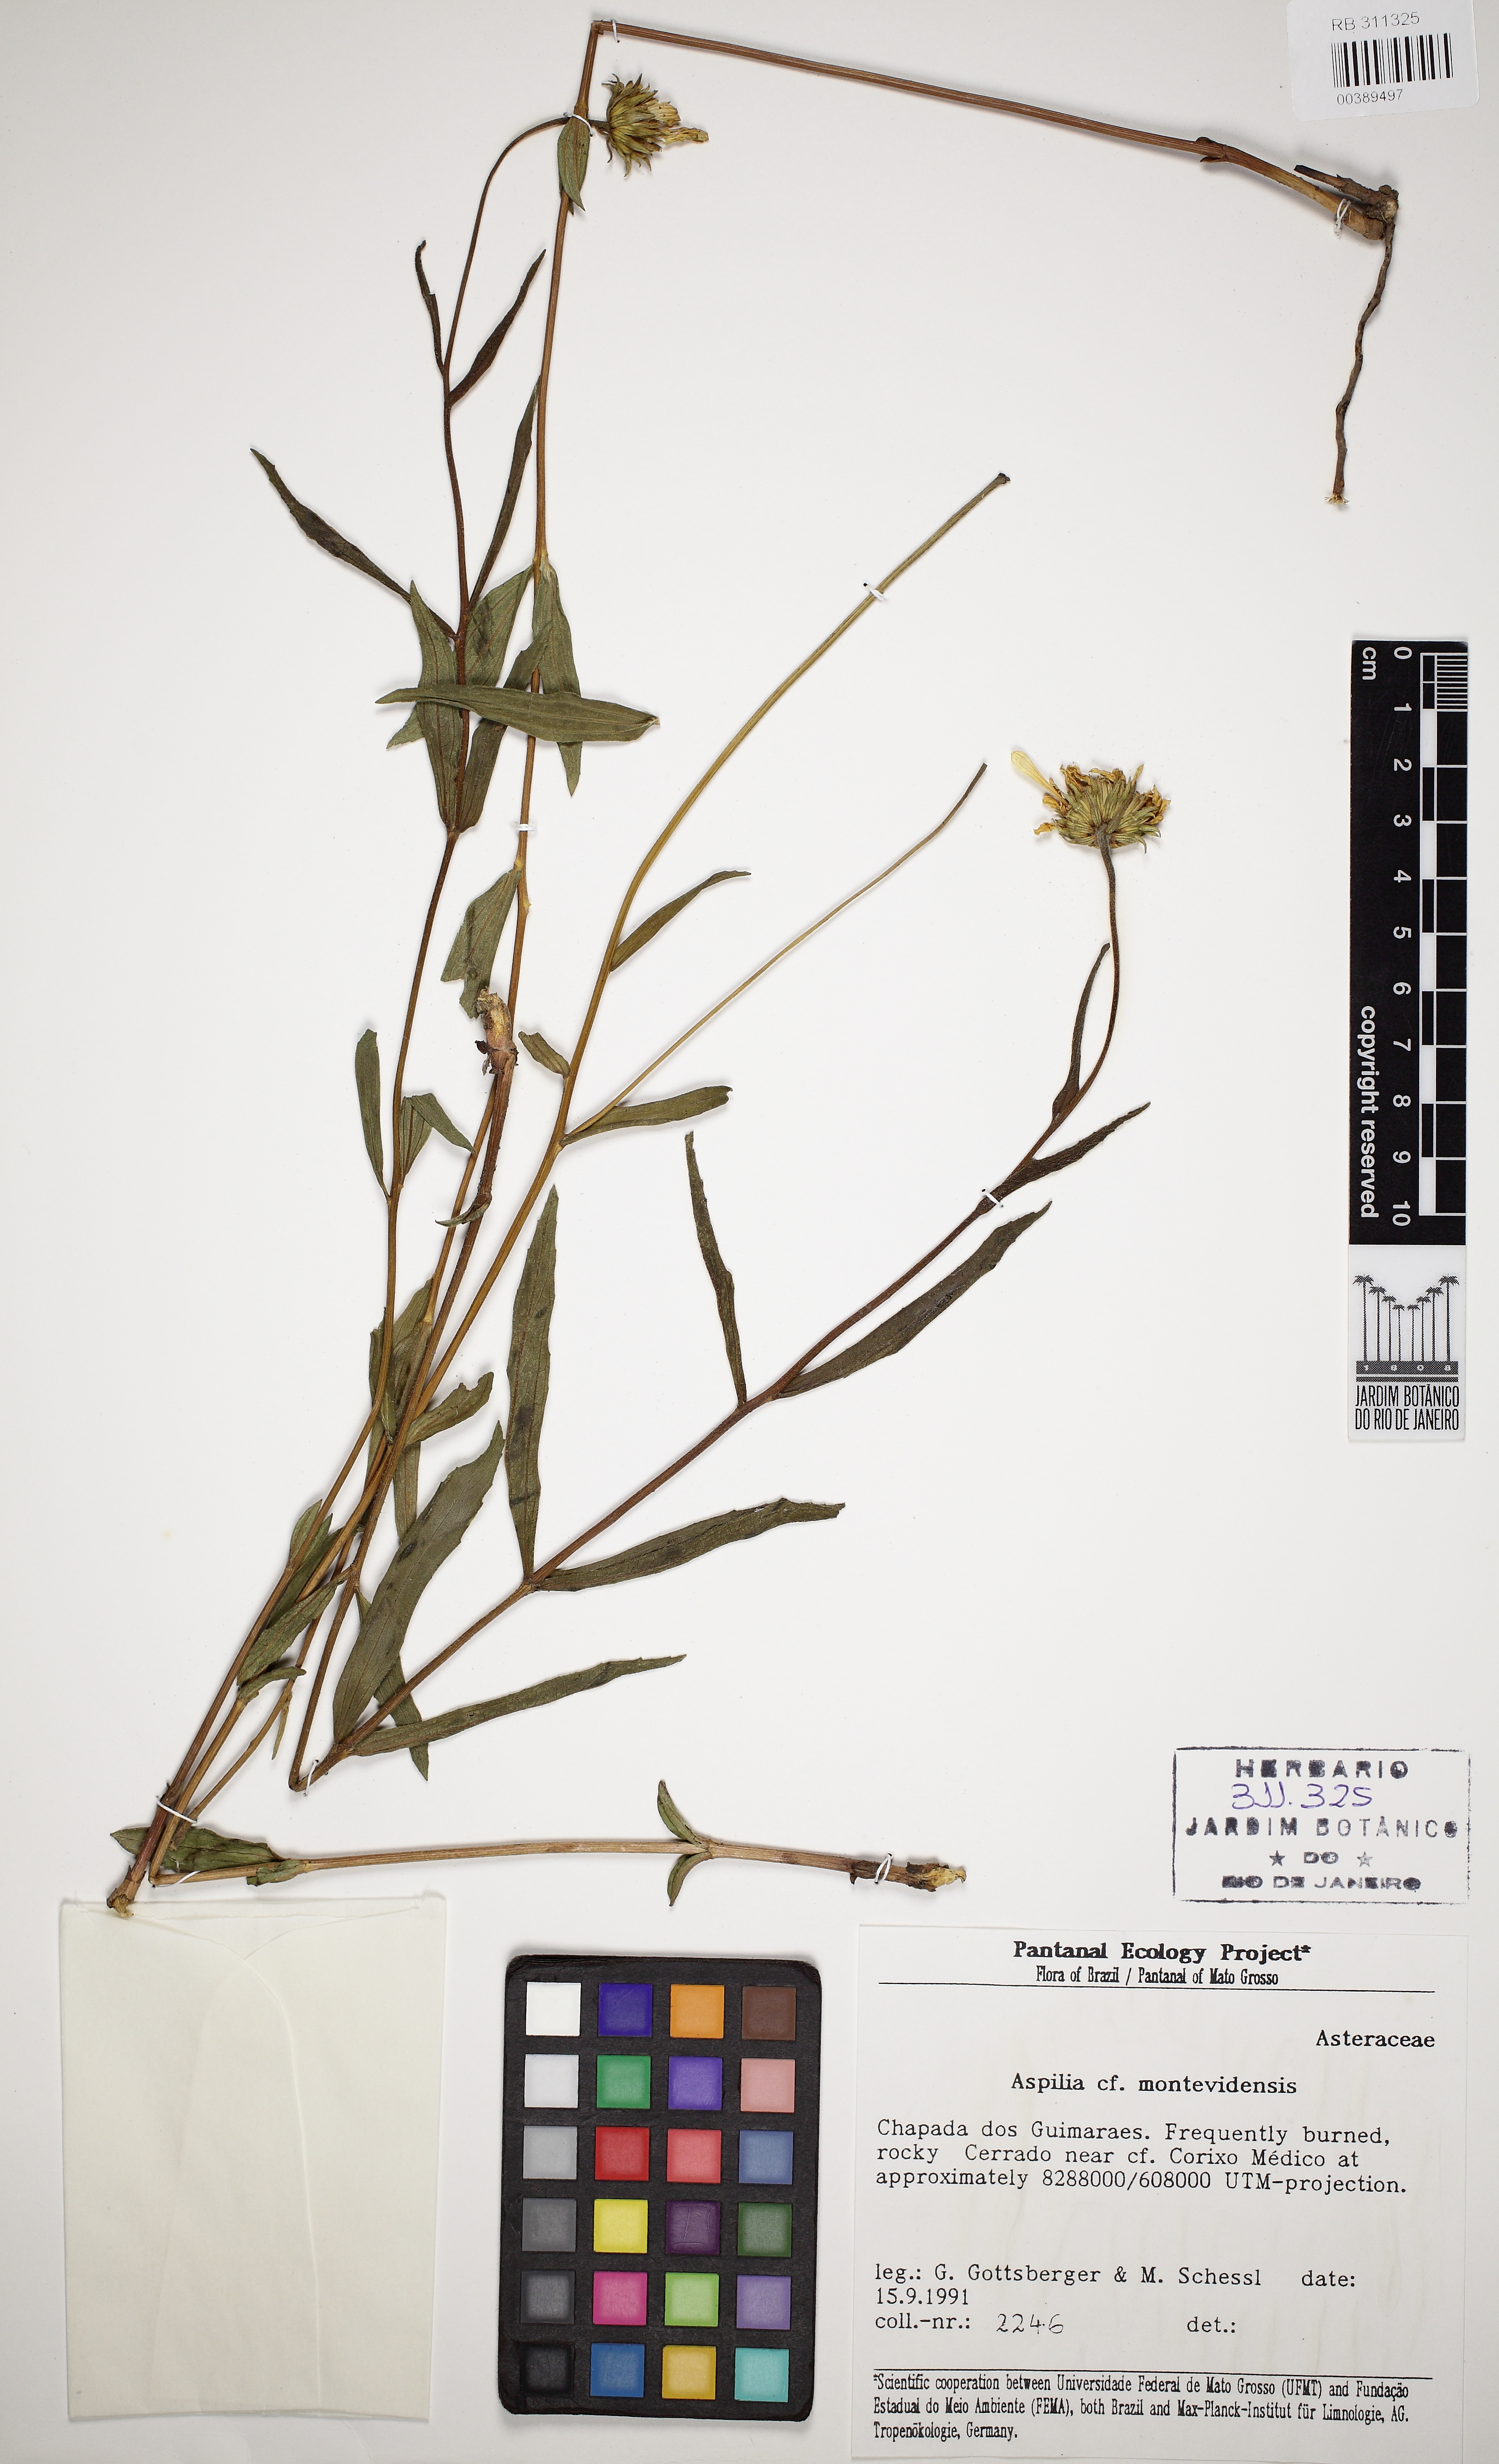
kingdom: Plantae
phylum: Tracheophyta
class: Magnoliopsida
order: Asterales
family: Asteraceae
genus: Aldama
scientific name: Aldama
